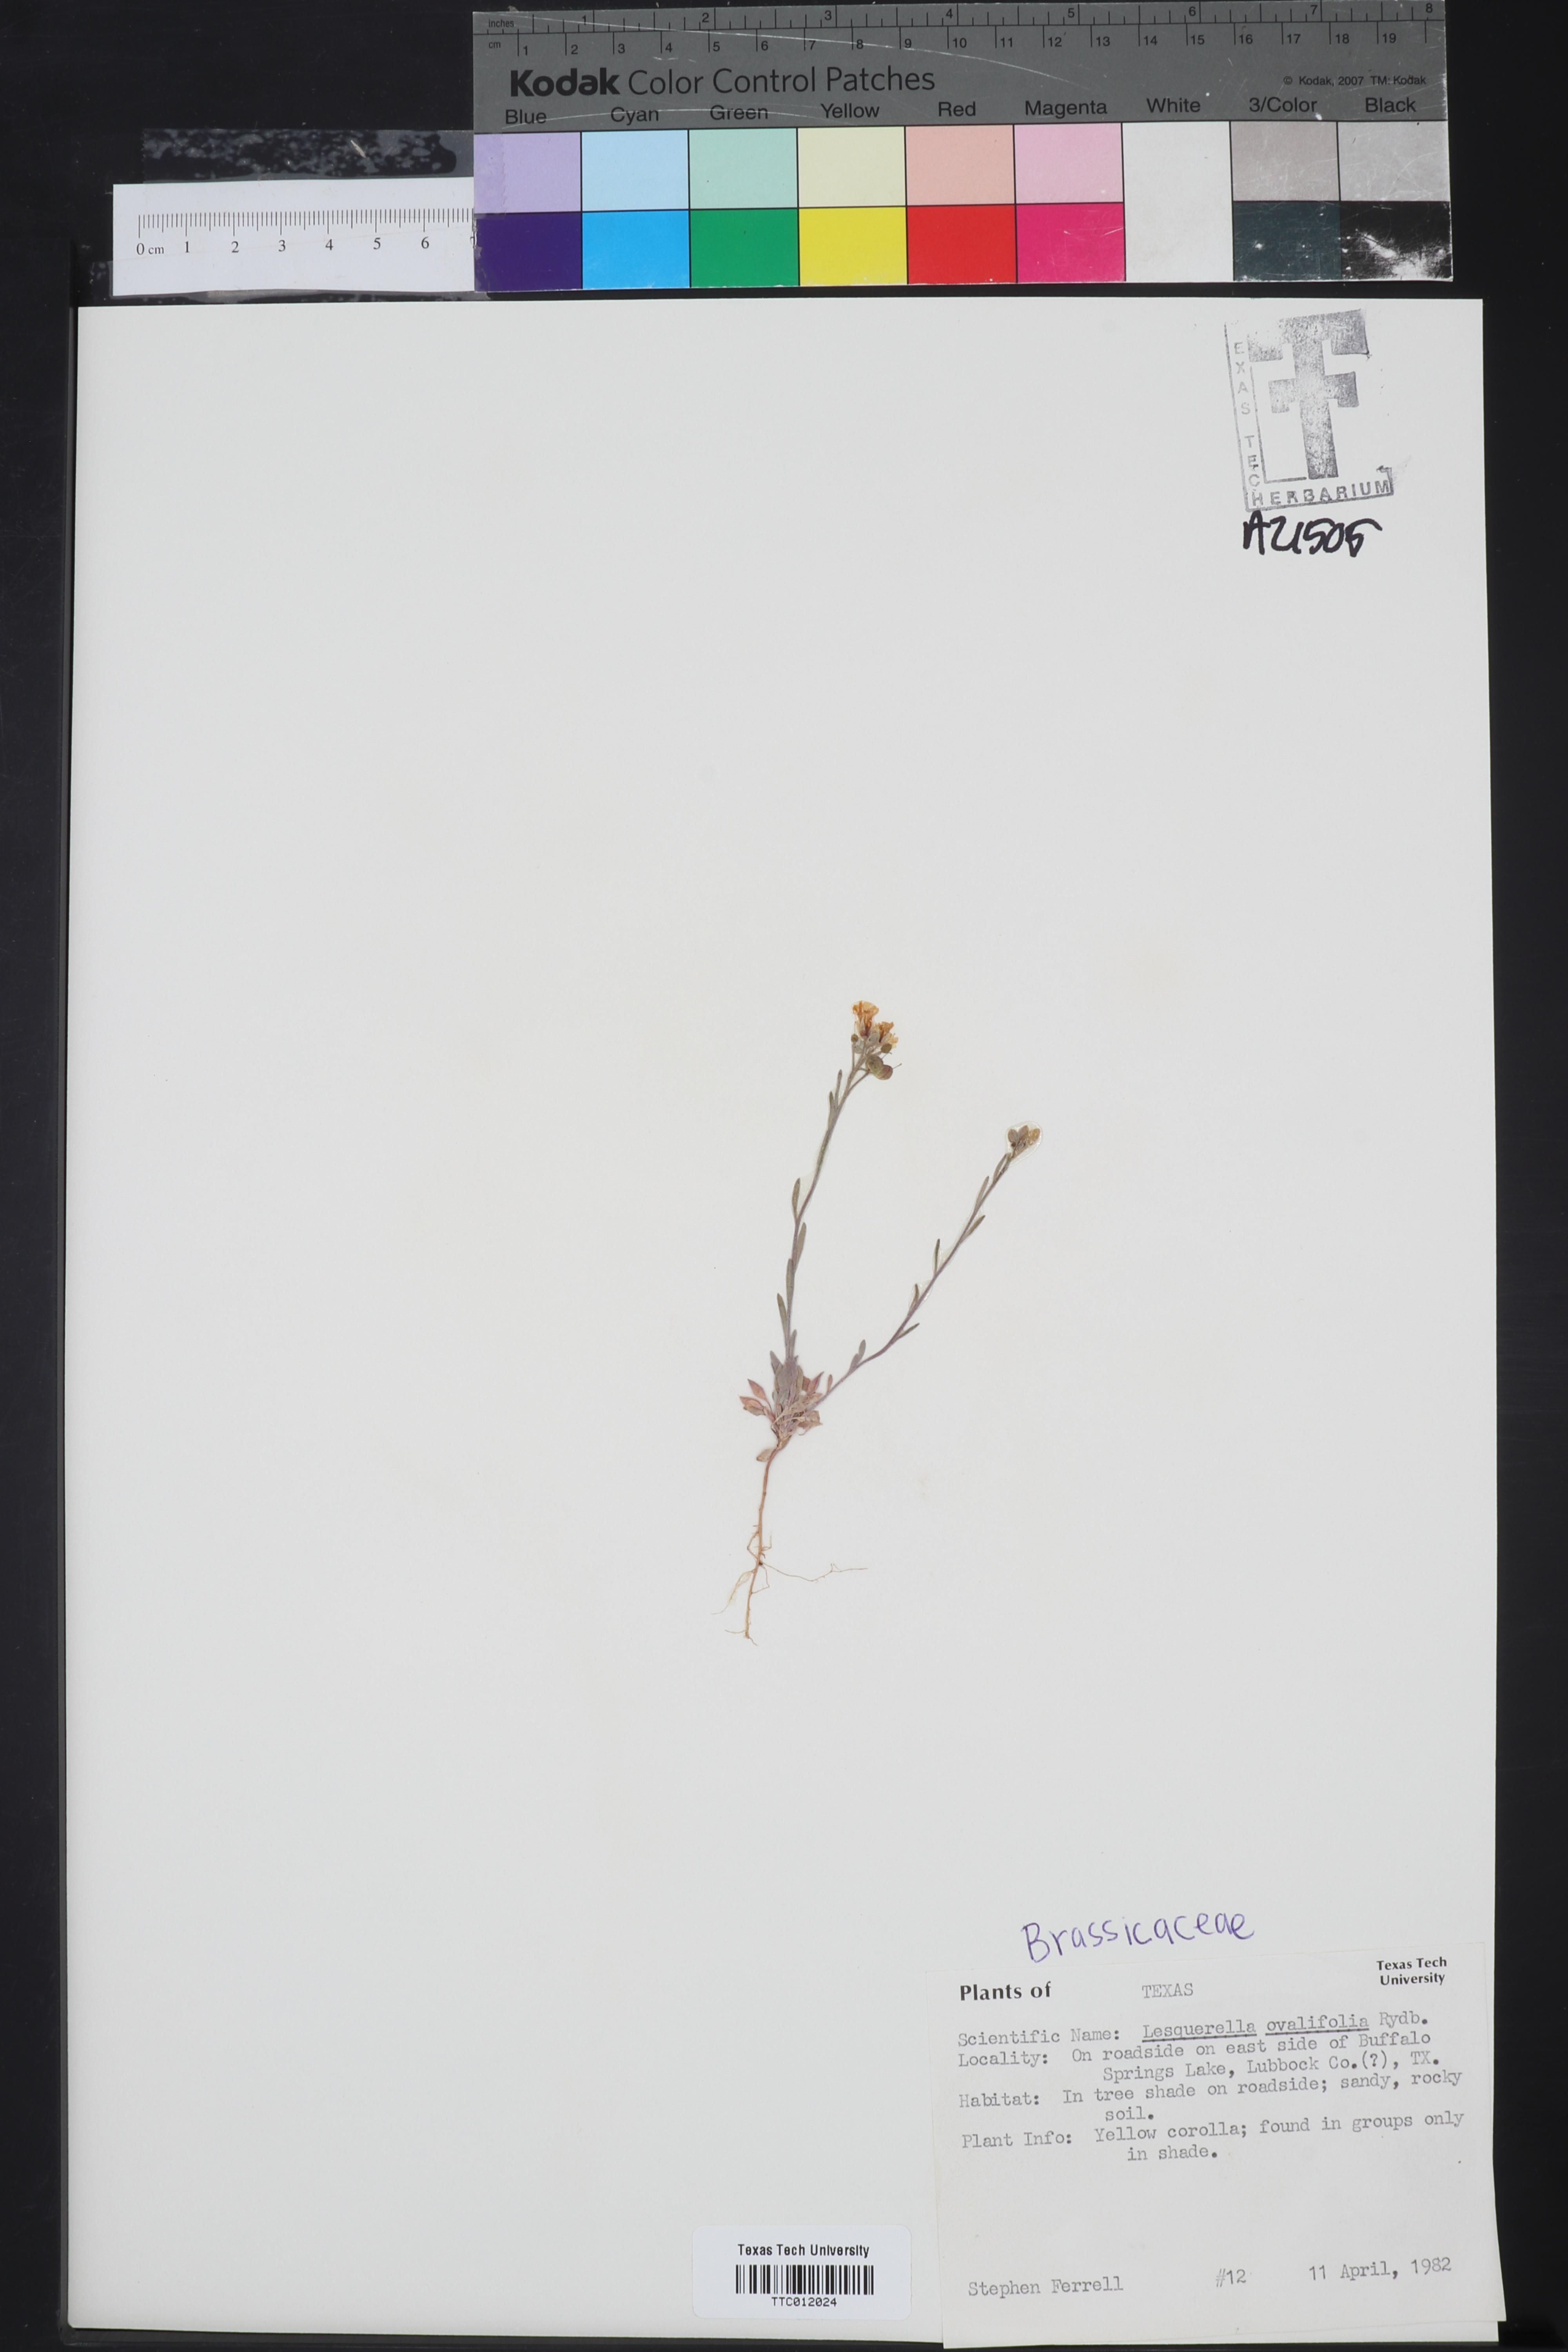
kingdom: Plantae
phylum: Tracheophyta
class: Magnoliopsida
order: Brassicales
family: Brassicaceae
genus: Physaria
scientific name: Physaria ovalifolia
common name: Round-leaf bladderpod
